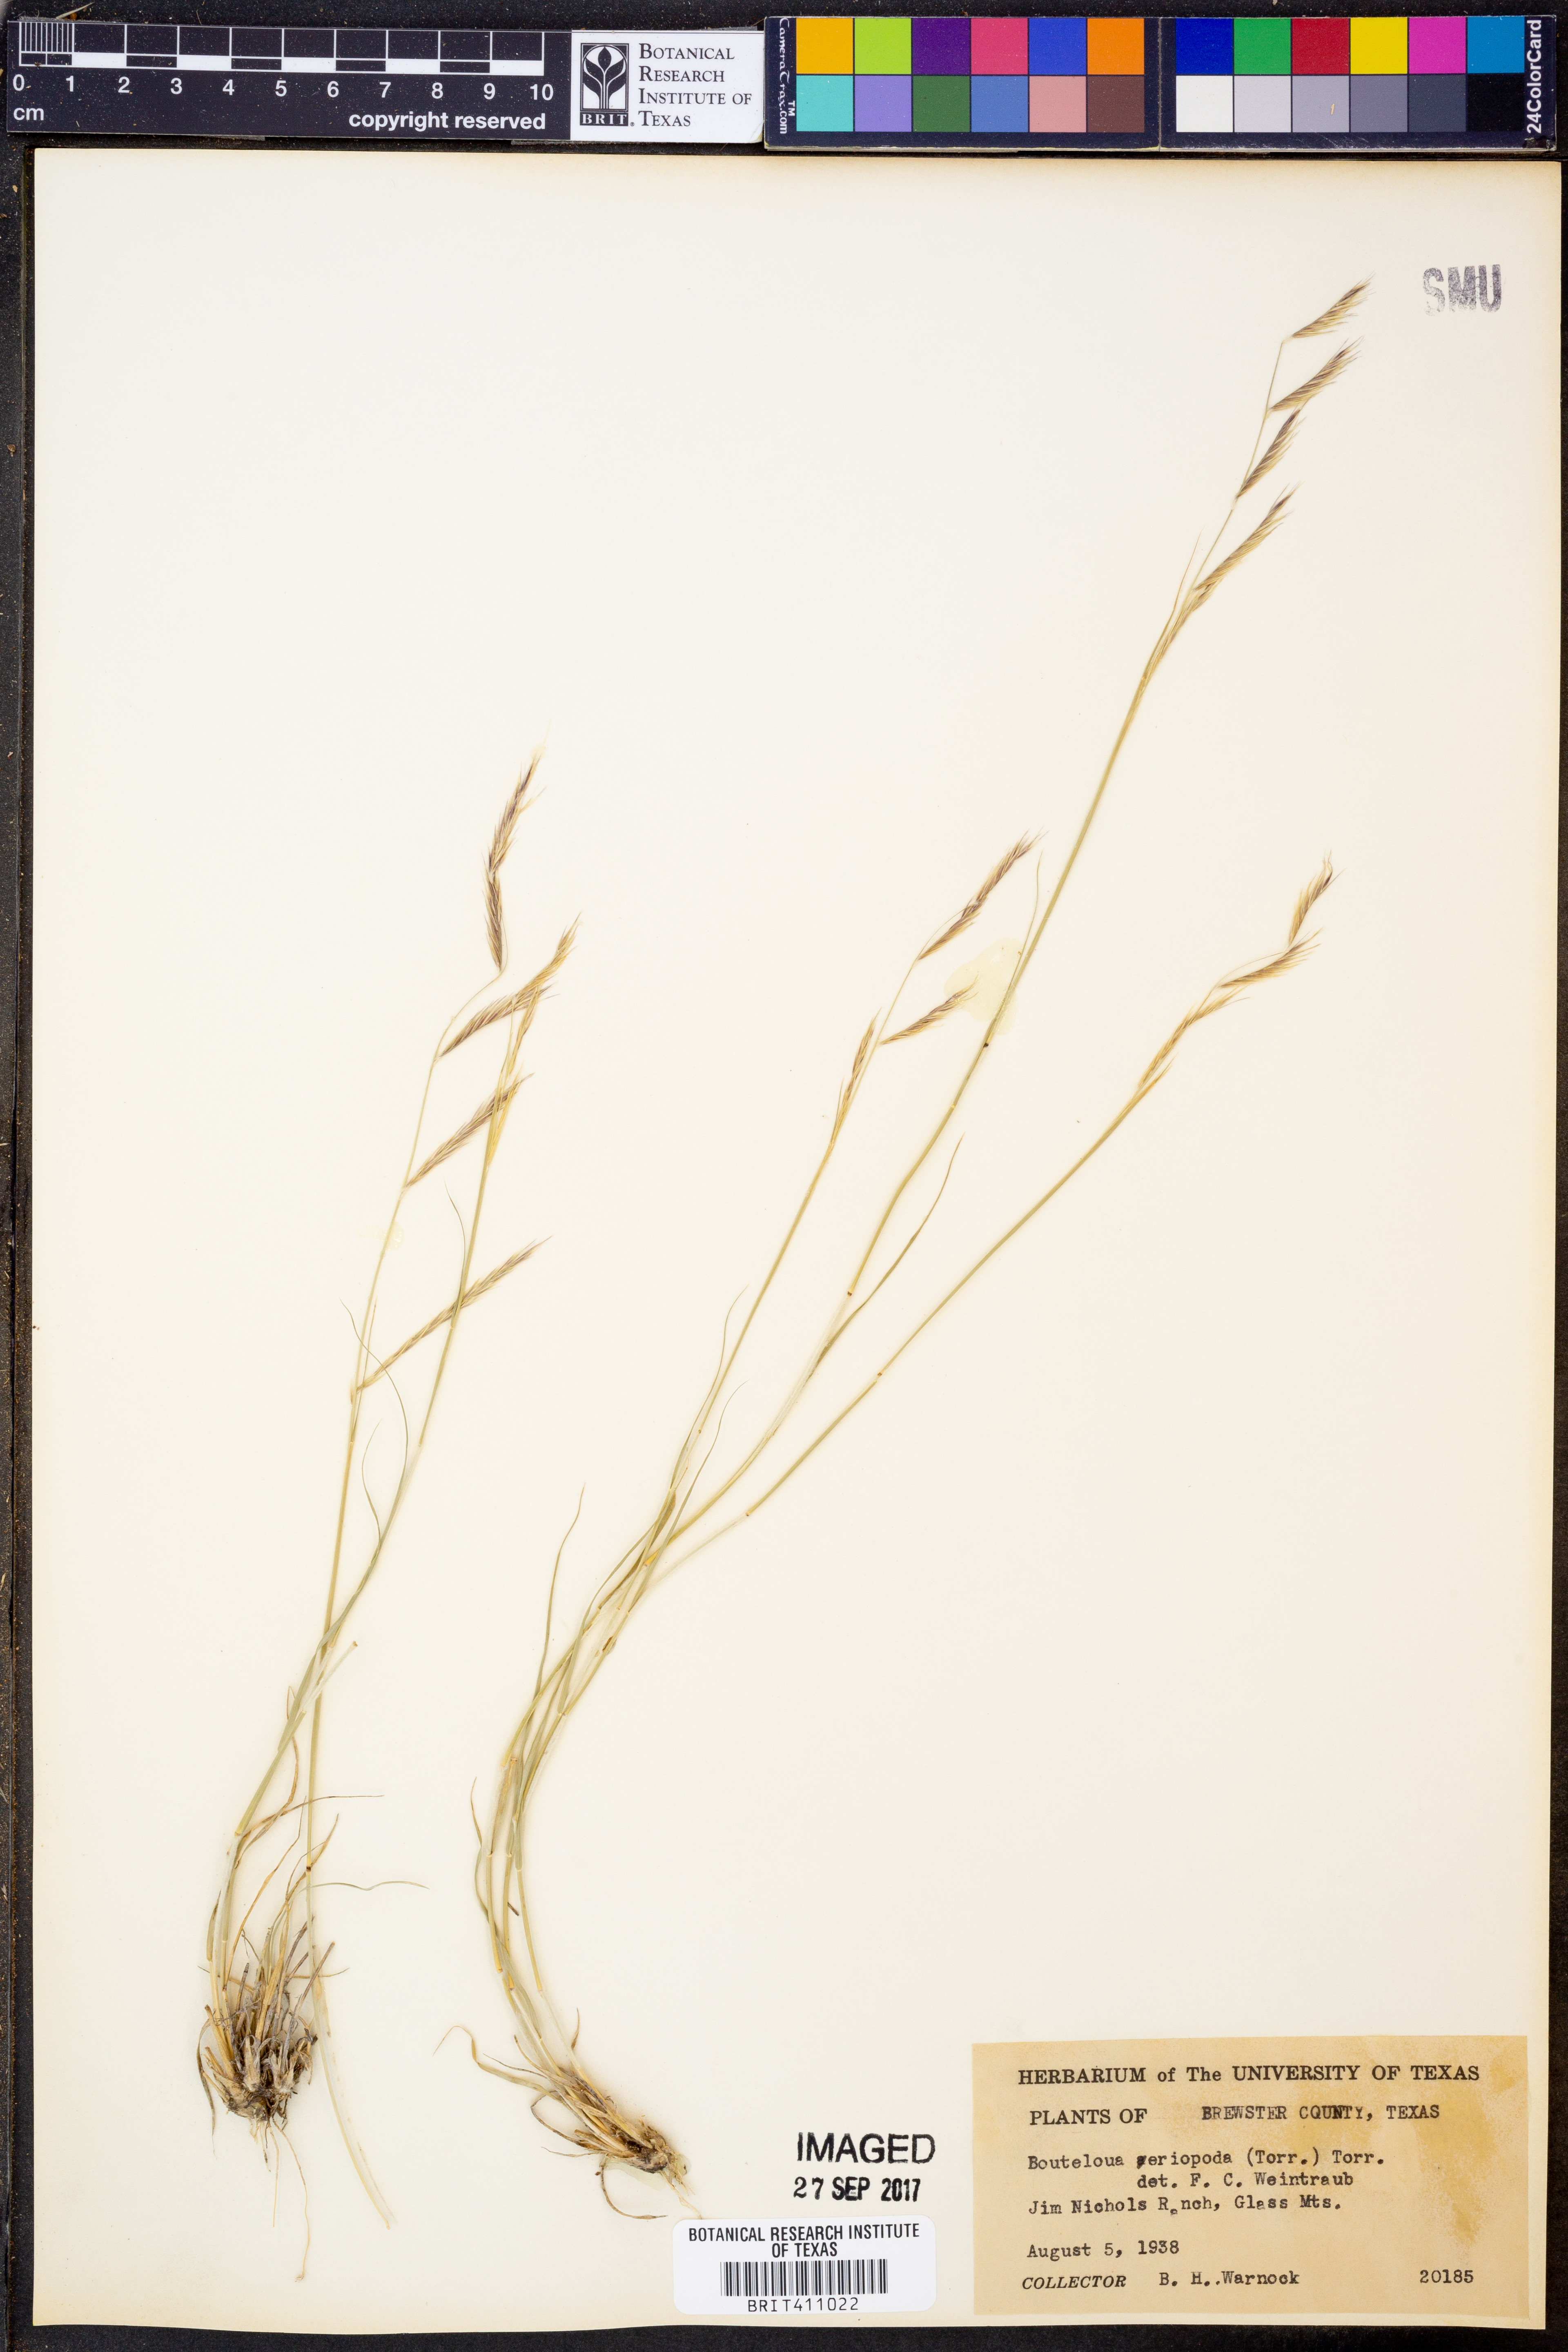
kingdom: Plantae
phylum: Tracheophyta
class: Liliopsida
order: Poales
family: Poaceae
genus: Bouteloua
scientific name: Bouteloua eriopoda
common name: Woolly foot grama
